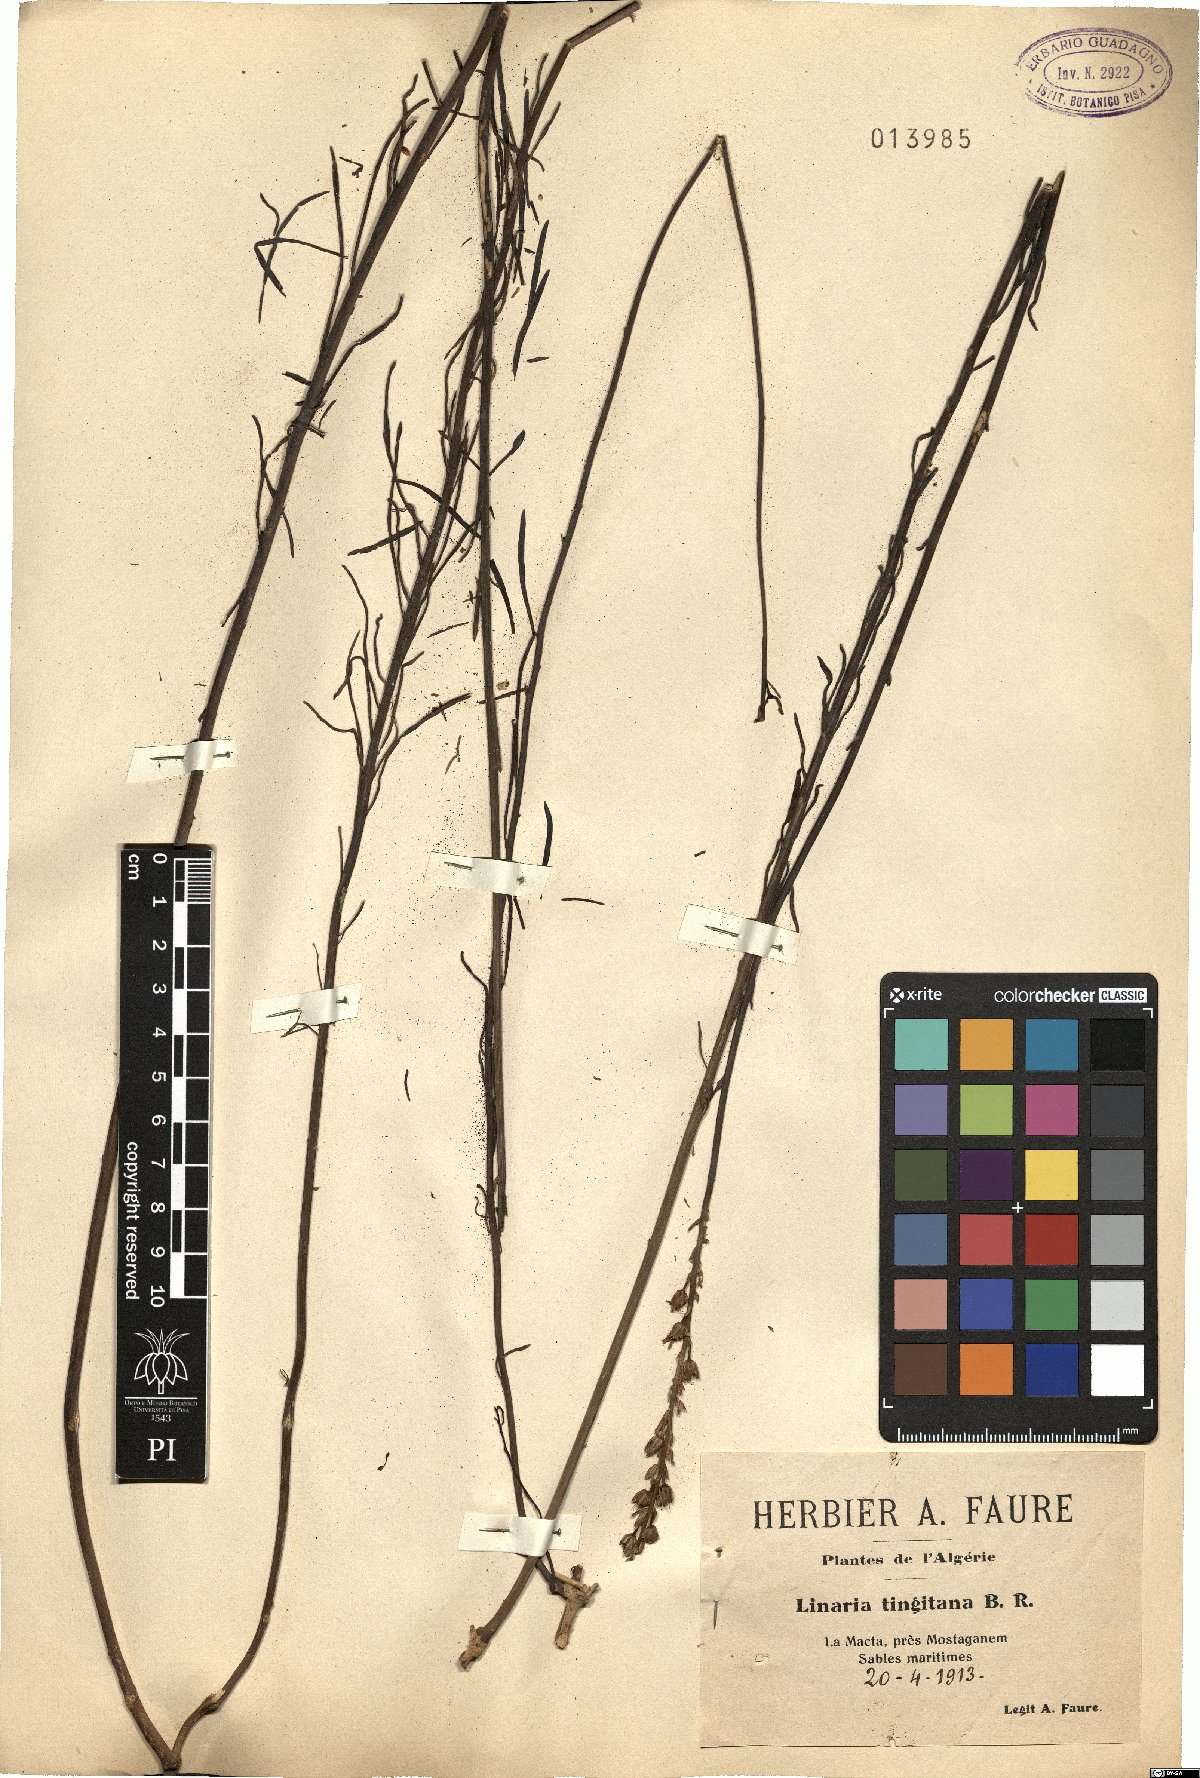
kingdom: Plantae
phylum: Tracheophyta
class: Magnoliopsida
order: Lamiales
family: Plantaginaceae
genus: Linaria
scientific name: Linaria tingitana
